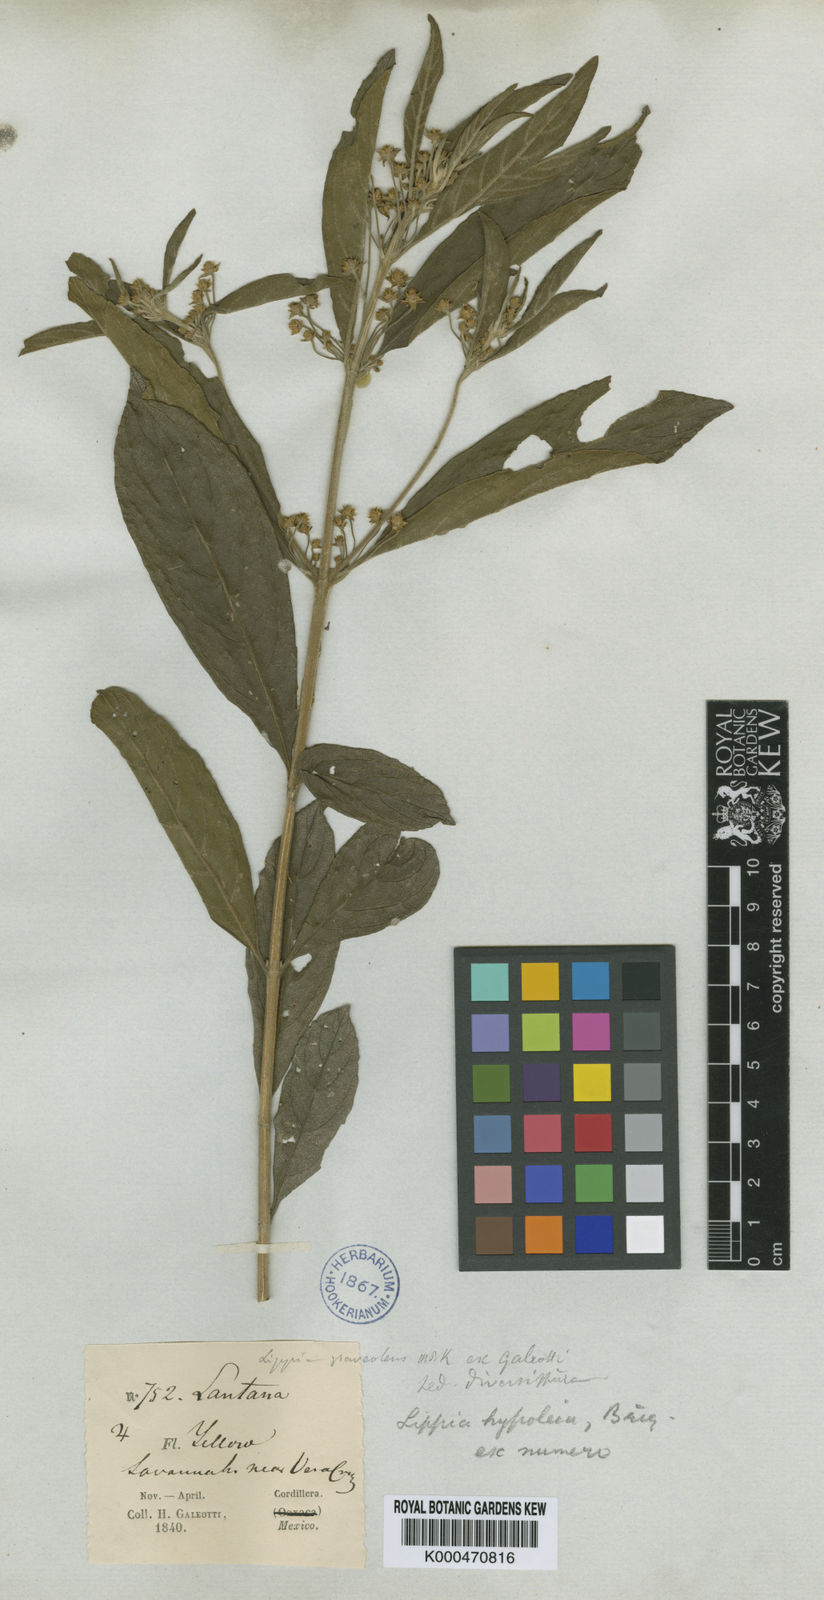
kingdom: Plantae
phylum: Tracheophyta
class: Magnoliopsida
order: Lamiales
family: Verbenaceae
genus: Lippia
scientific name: Lippia myriocephala
